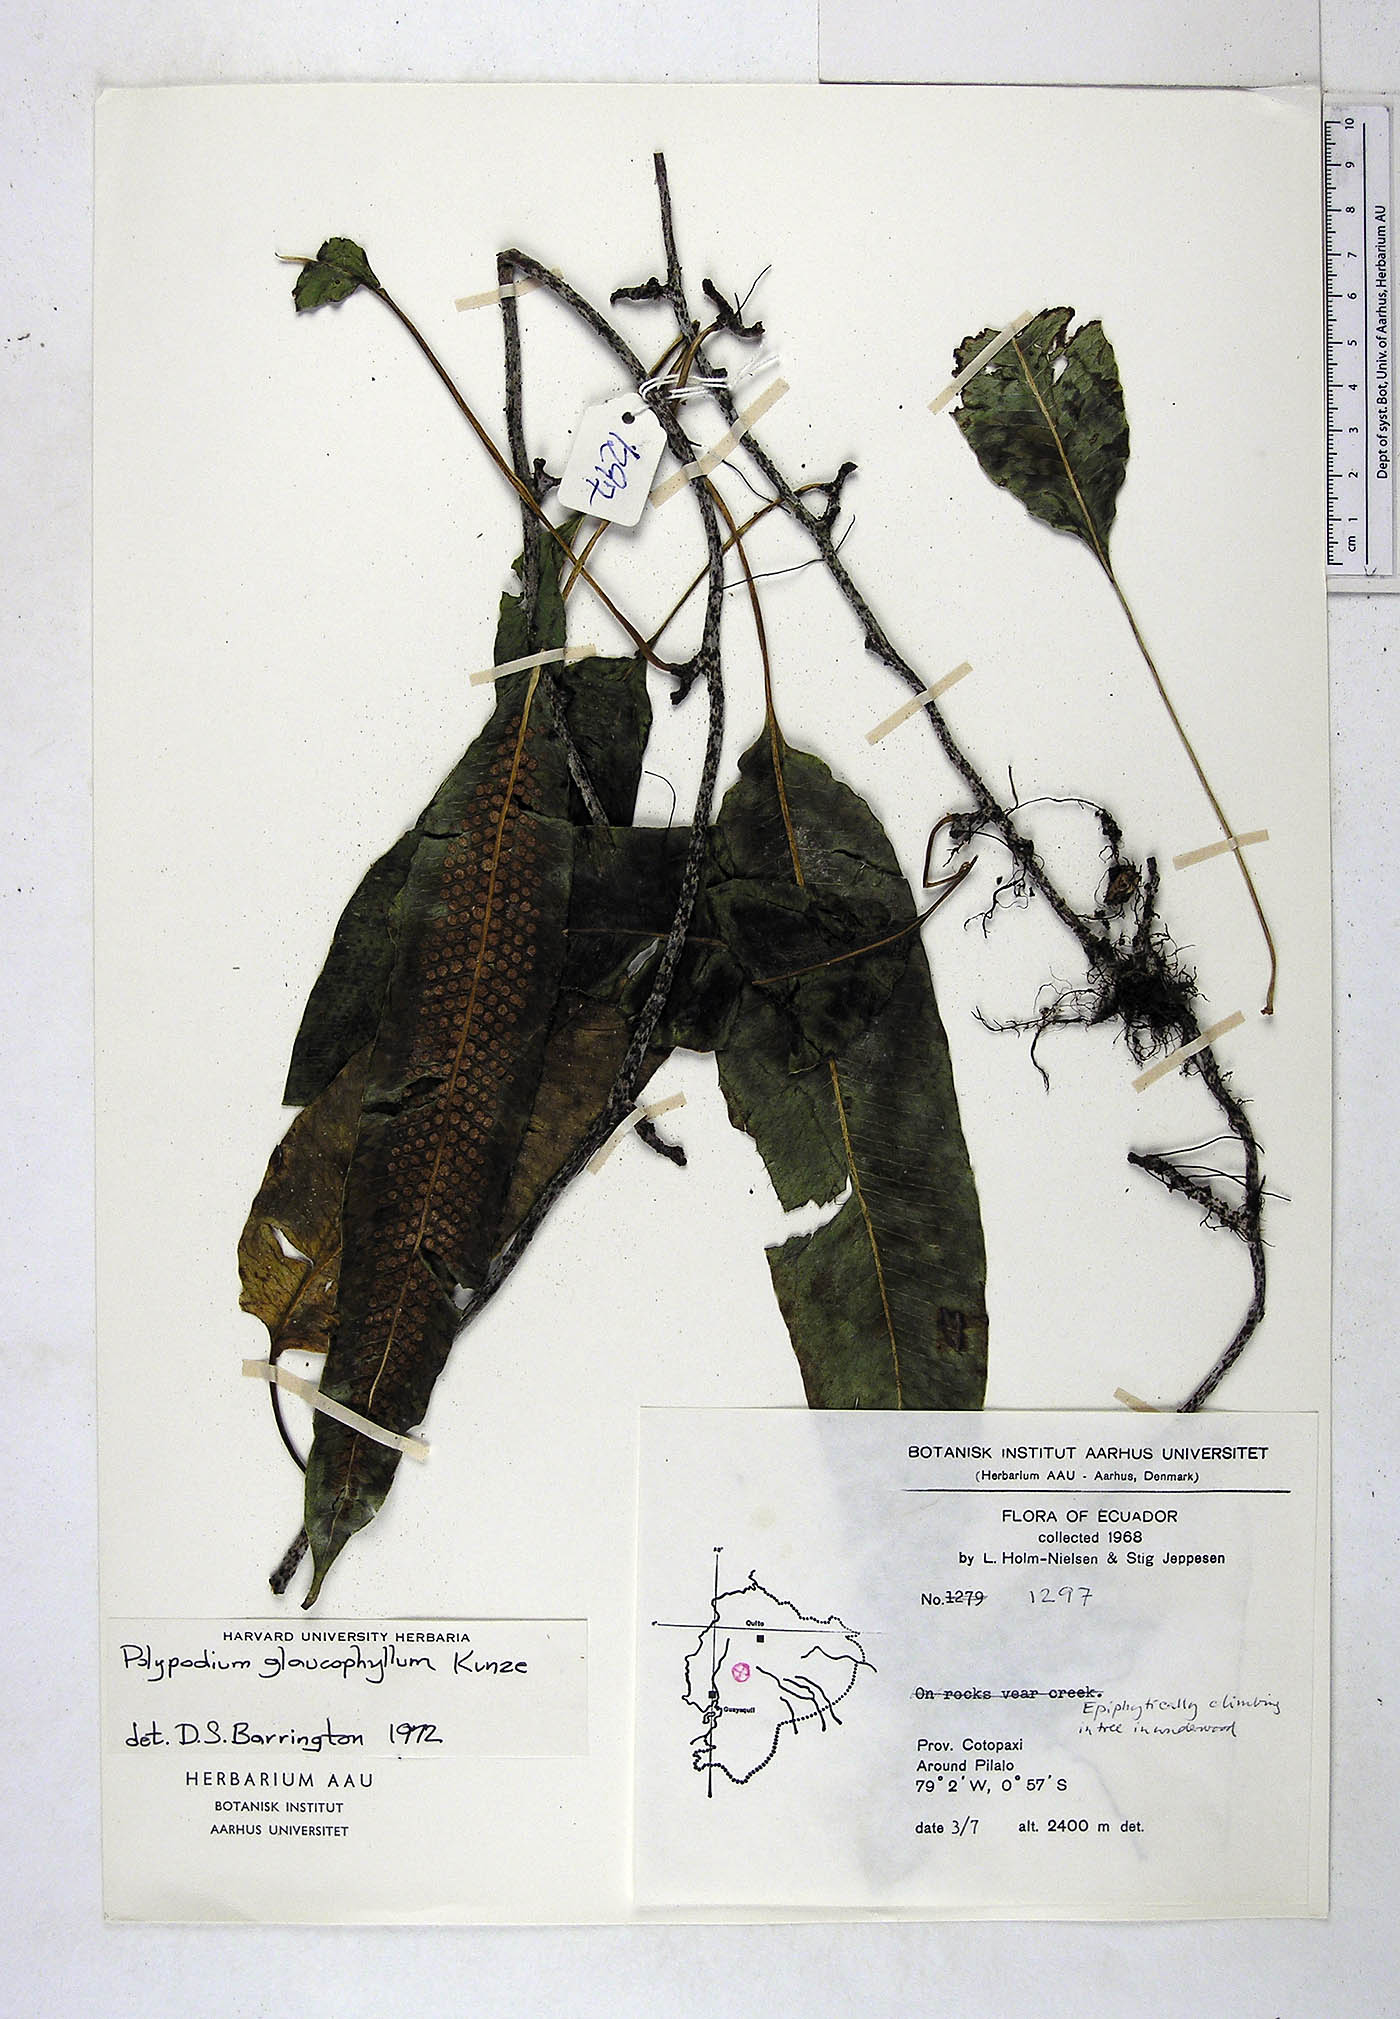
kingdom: Plantae
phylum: Tracheophyta
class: Polypodiopsida
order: Polypodiales
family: Polypodiaceae
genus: Serpocaulon
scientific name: Serpocaulon laevigatum
